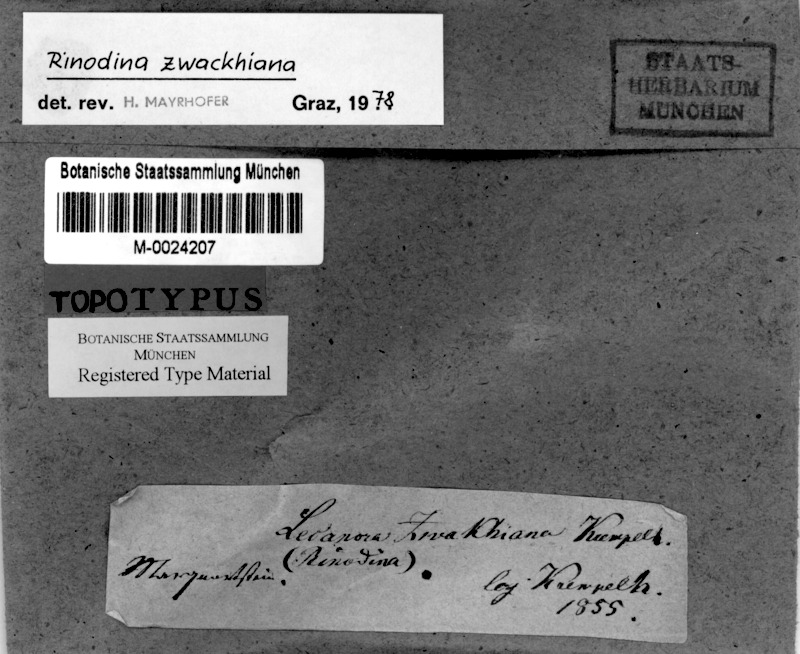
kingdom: Fungi
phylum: Ascomycota
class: Lecanoromycetes
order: Caliciales
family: Physciaceae
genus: Johnsheardia
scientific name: Johnsheardia zwackhiana
